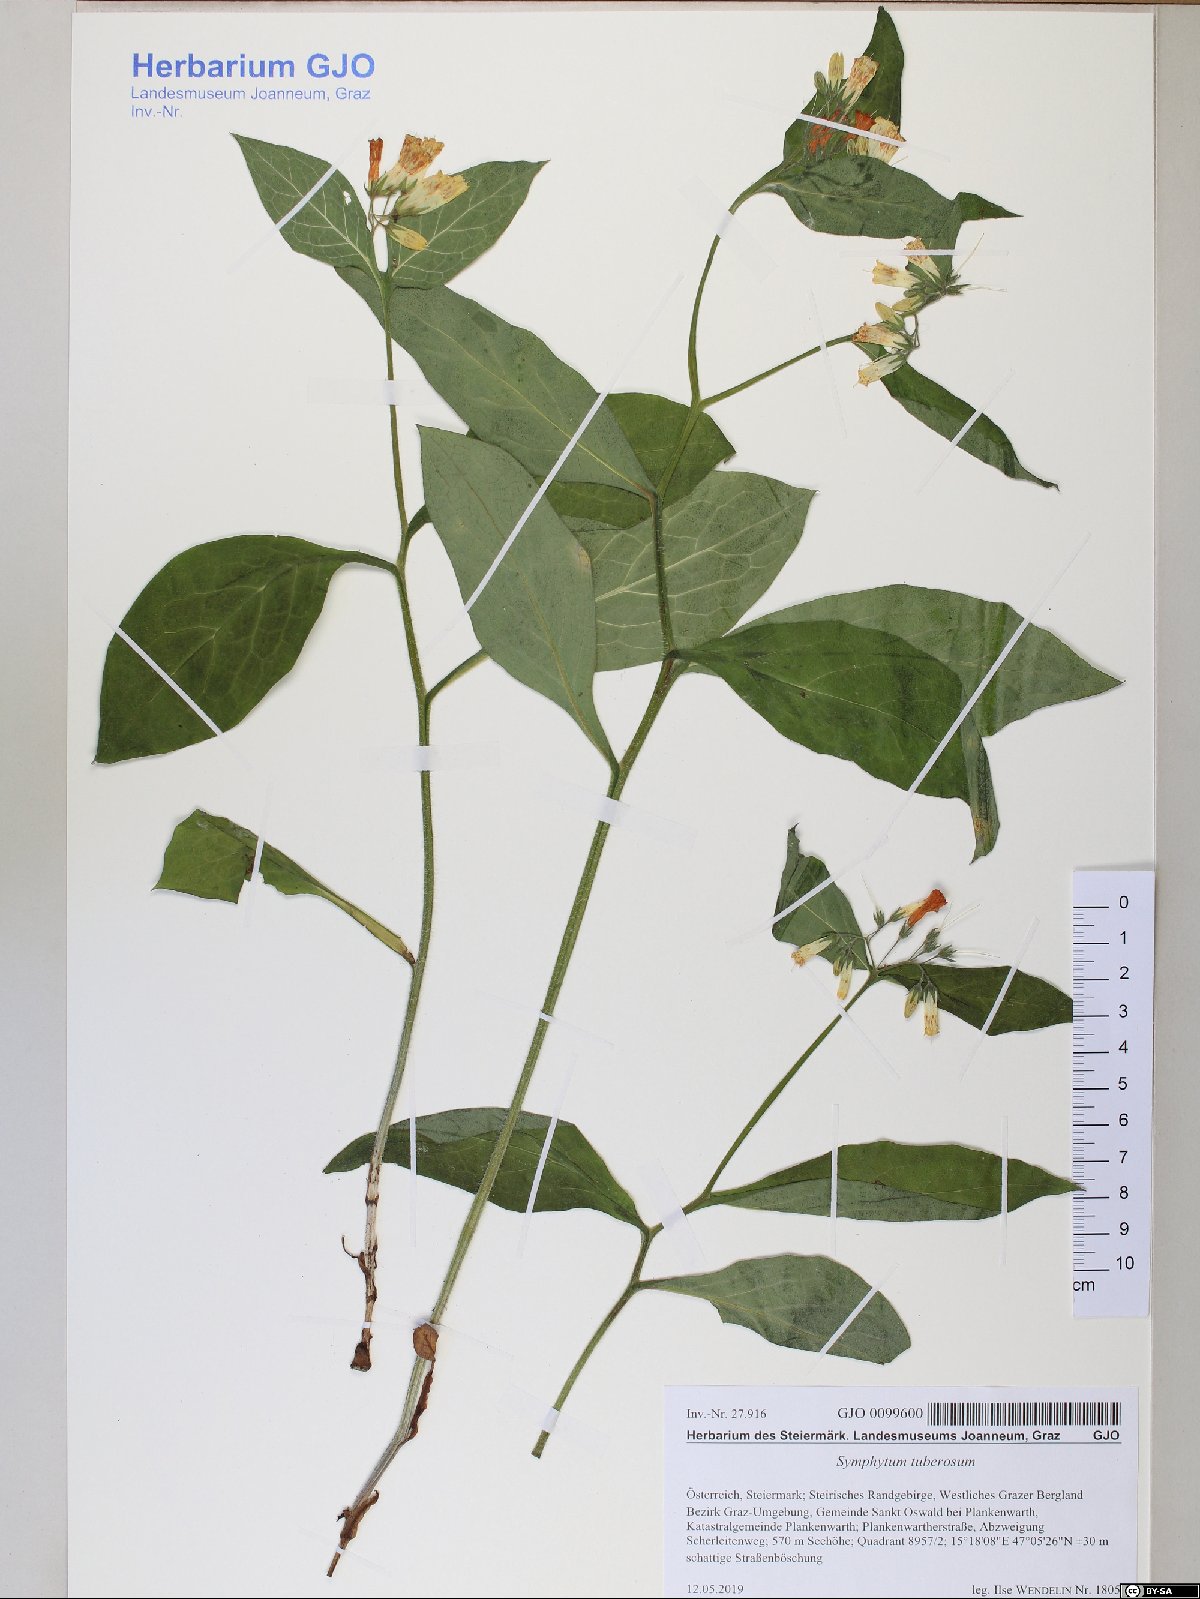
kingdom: Plantae
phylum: Tracheophyta
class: Magnoliopsida
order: Boraginales
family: Boraginaceae
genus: Symphytum
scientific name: Symphytum tuberosum
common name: Tuberous comfrey
